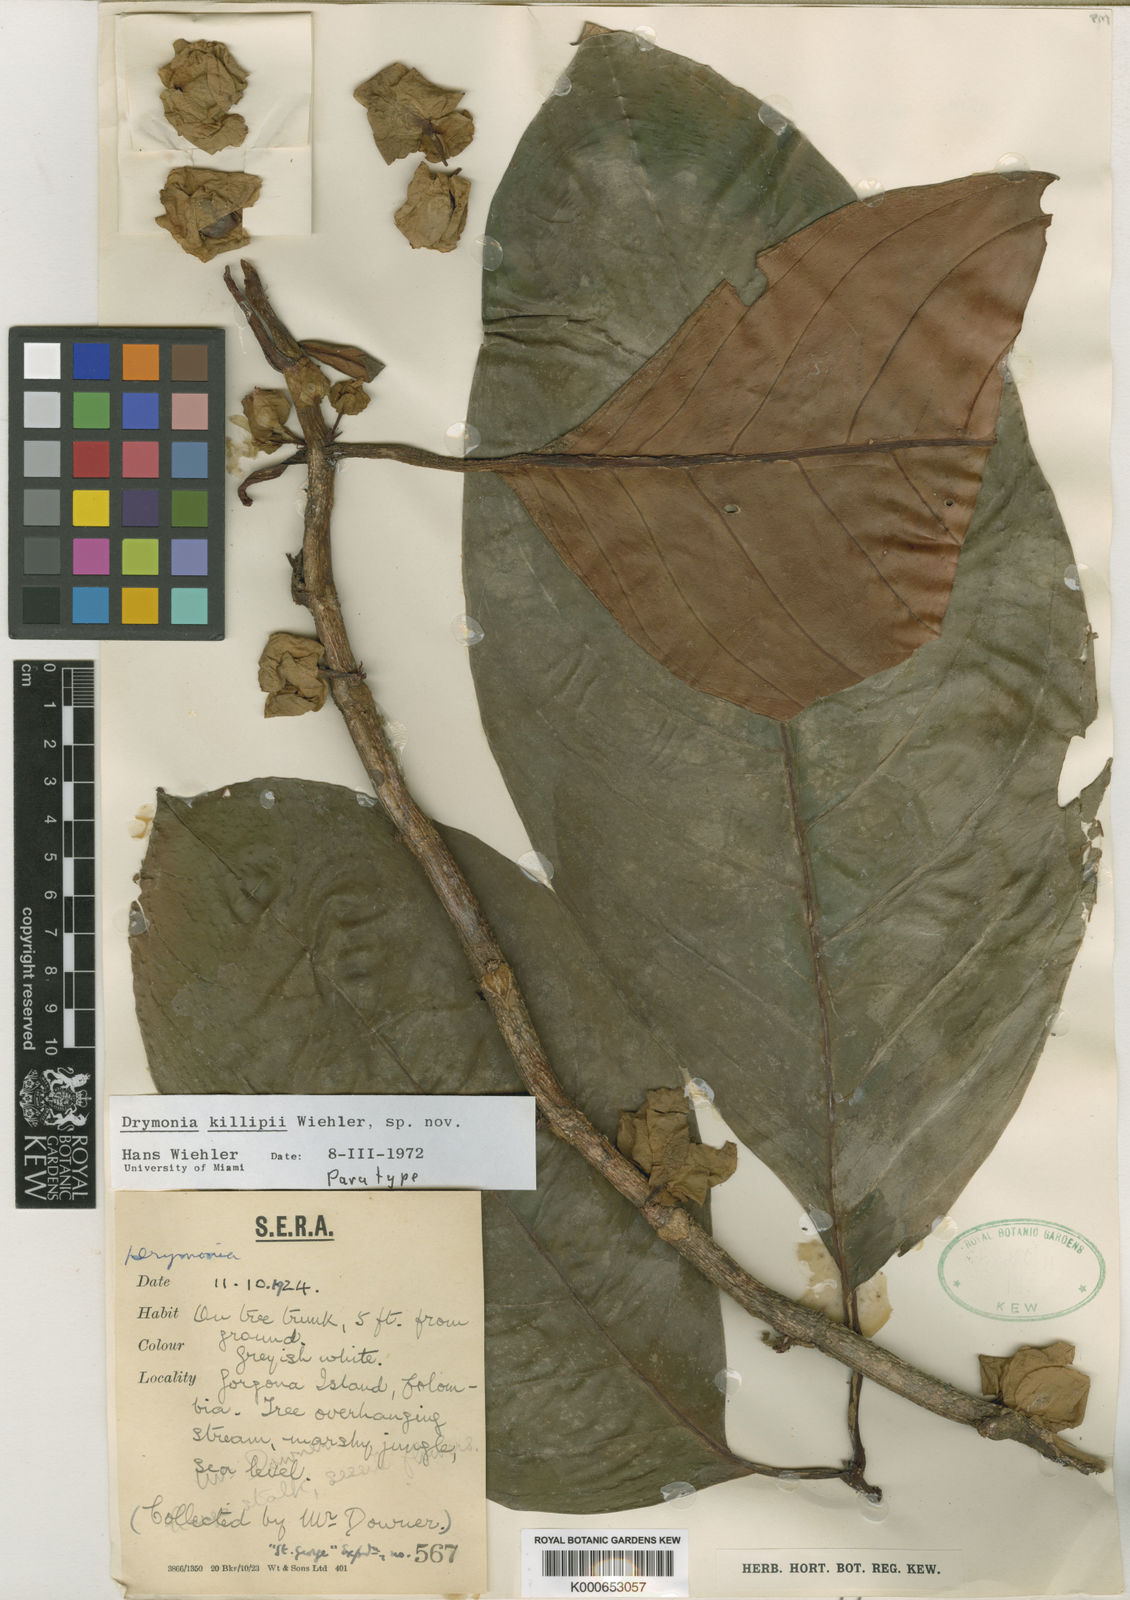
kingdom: Plantae
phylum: Tracheophyta
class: Magnoliopsida
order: Lamiales
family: Gesneriaceae
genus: Drymonia
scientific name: Drymonia killipii
